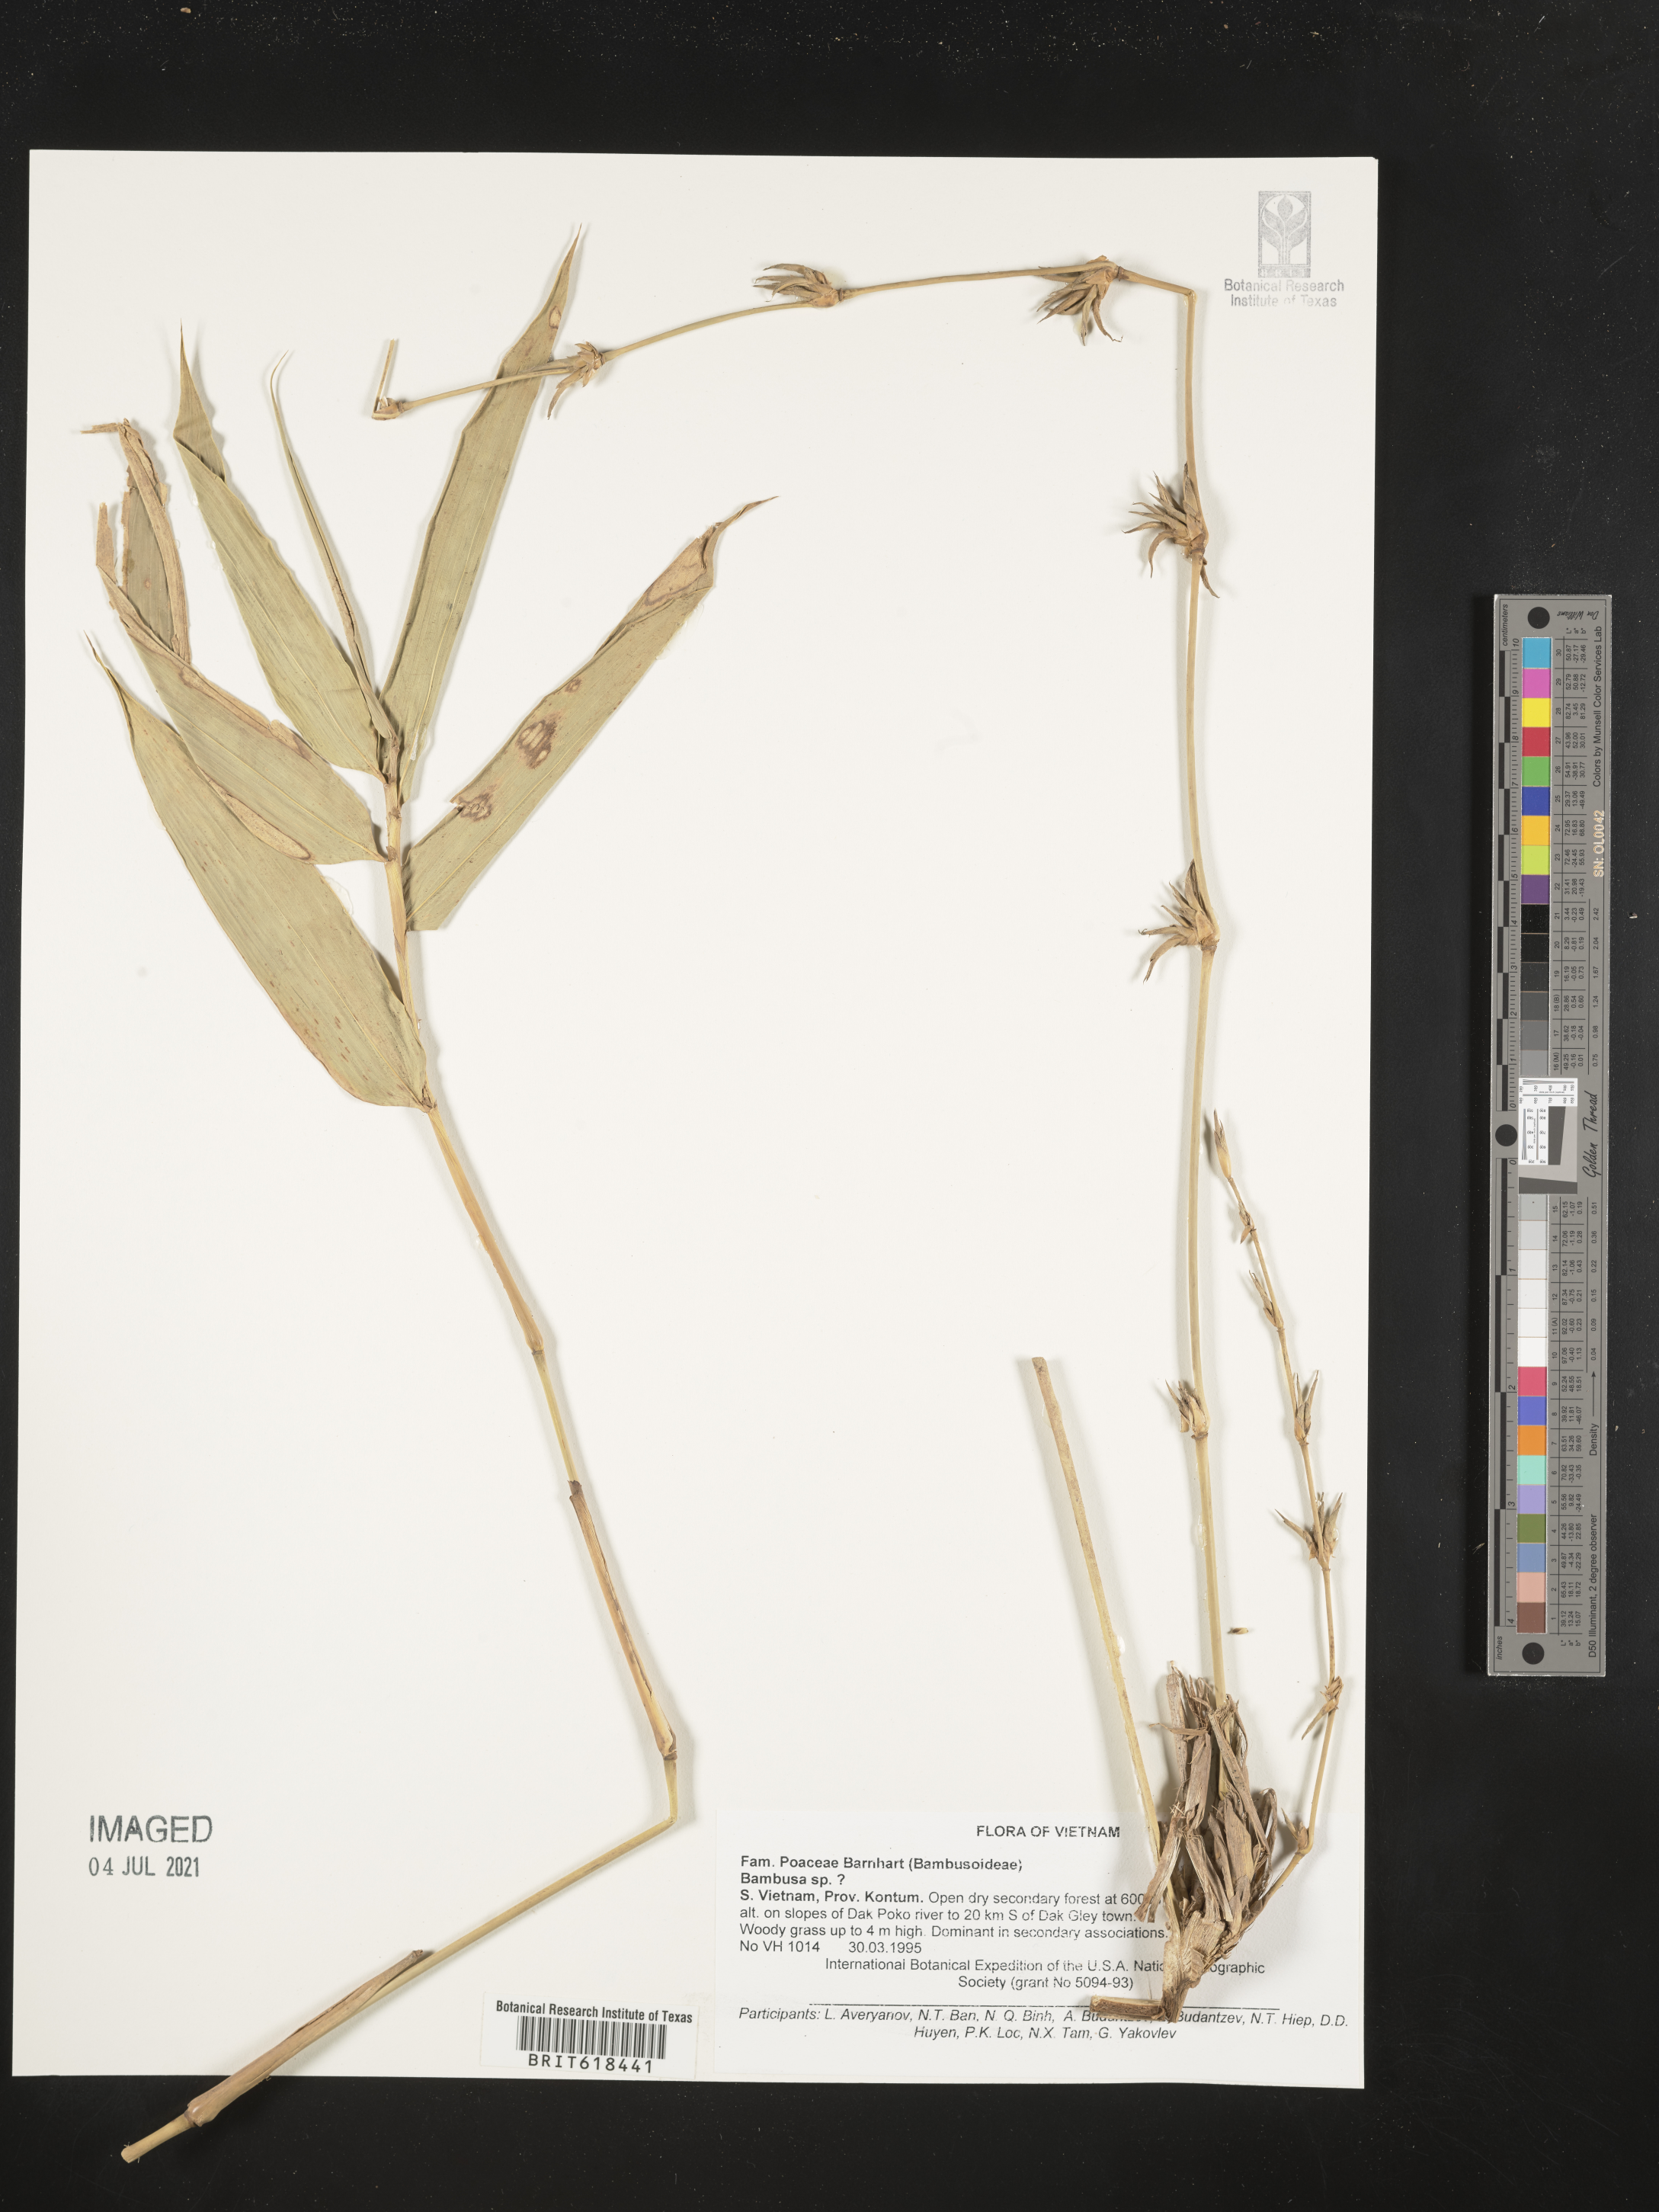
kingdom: Plantae
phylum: Tracheophyta
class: Liliopsida
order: Poales
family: Poaceae
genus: Bambusa
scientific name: Bambusa
